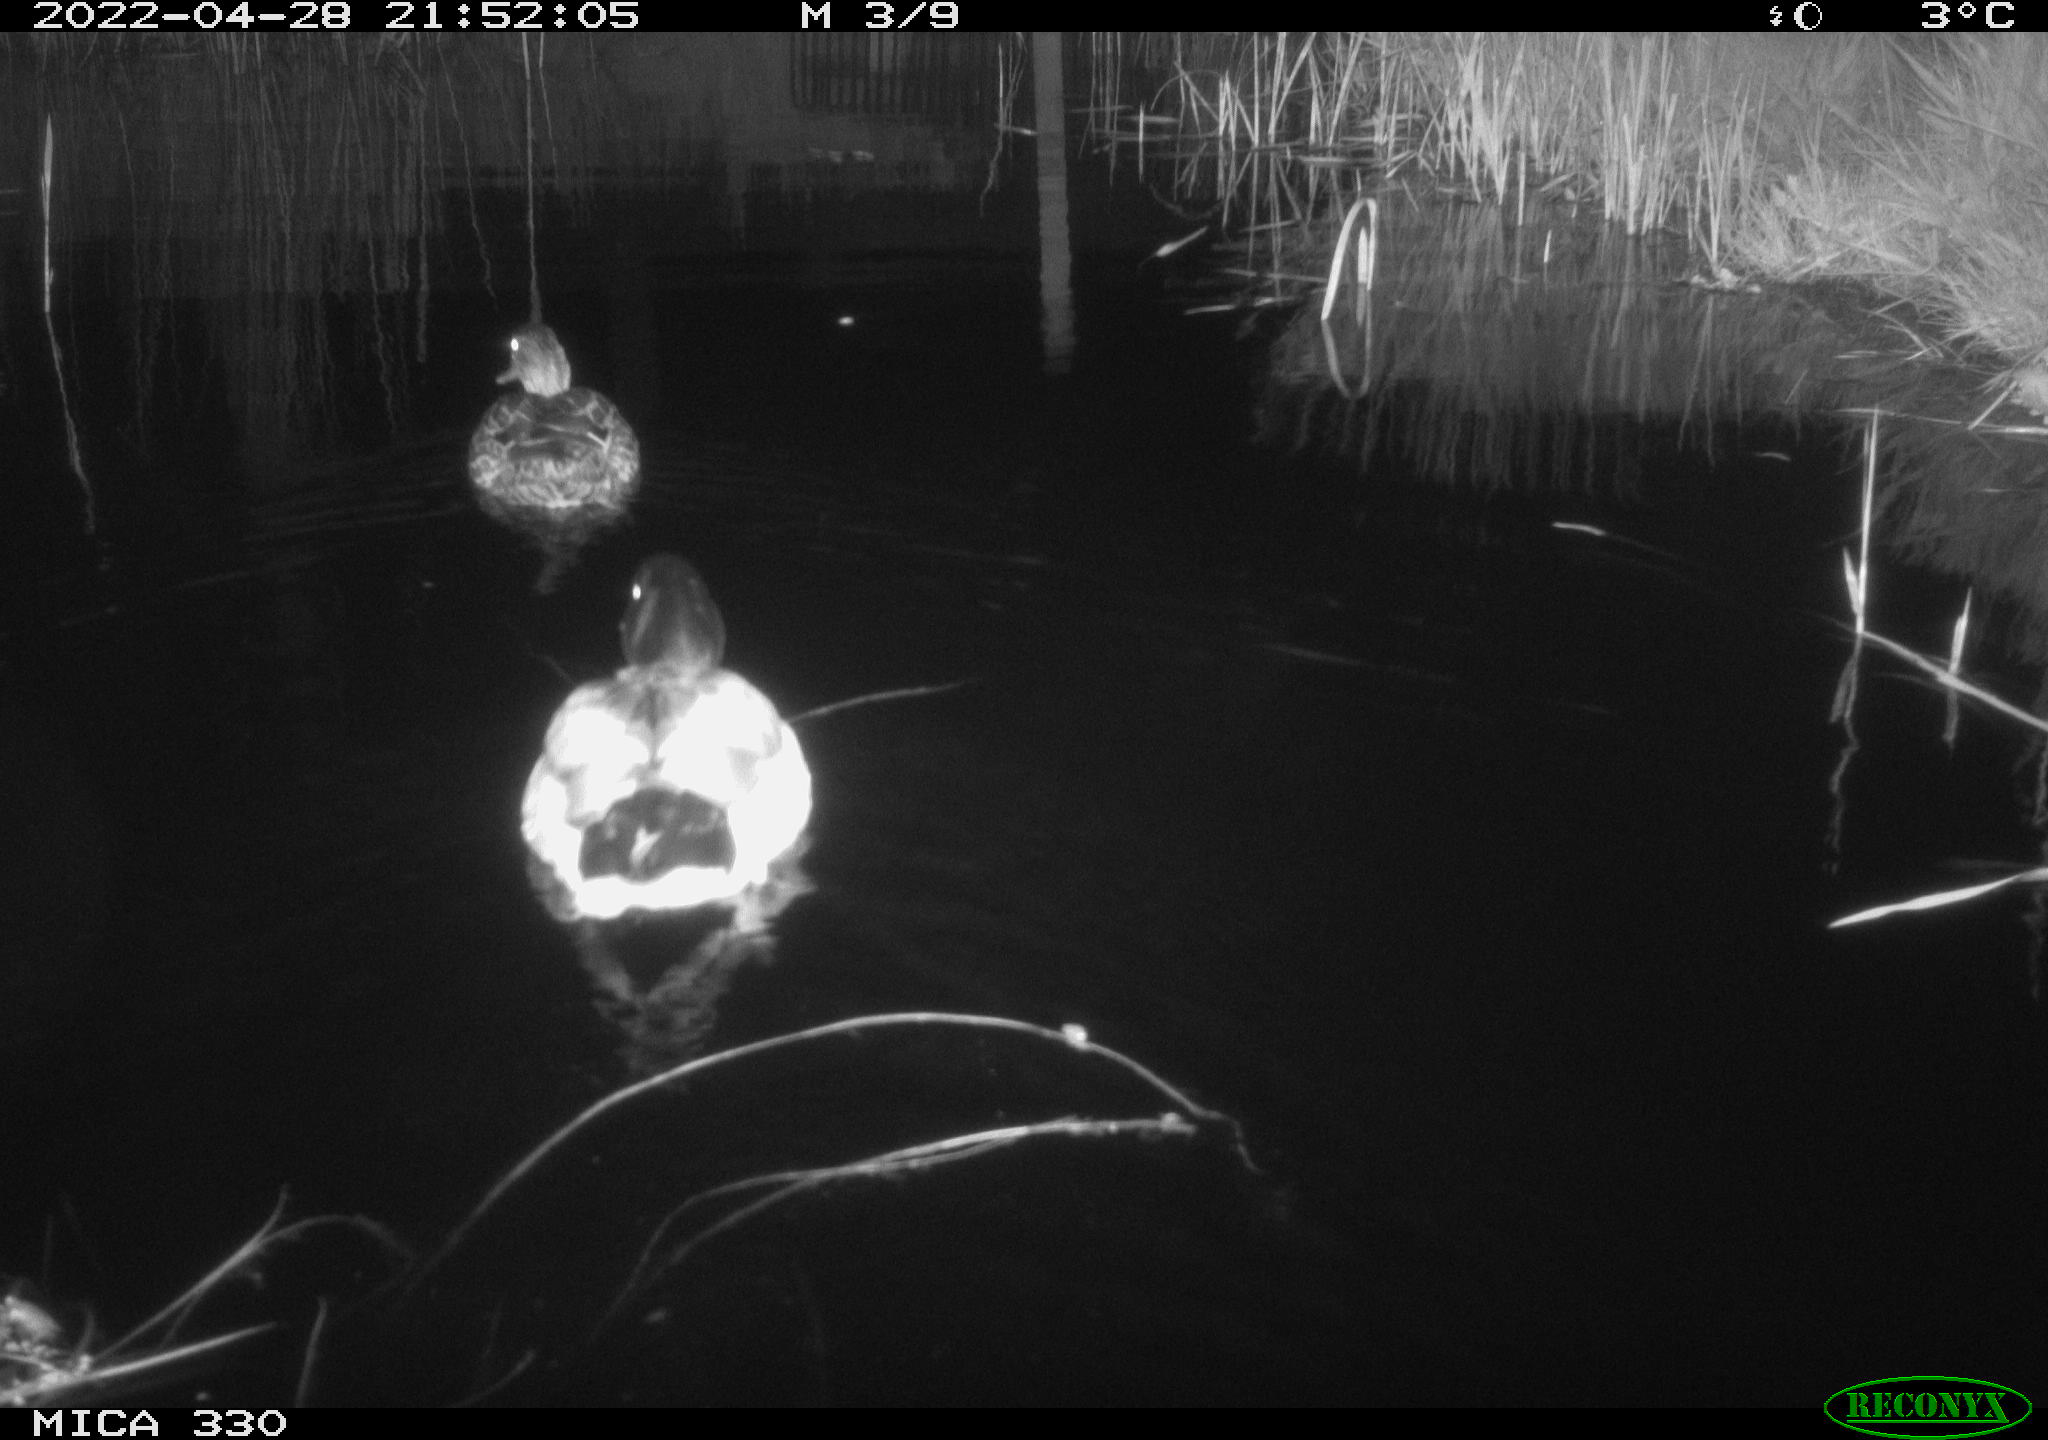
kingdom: Animalia
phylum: Chordata
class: Aves
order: Anseriformes
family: Anatidae
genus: Anas
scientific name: Anas platyrhynchos
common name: Mallard
